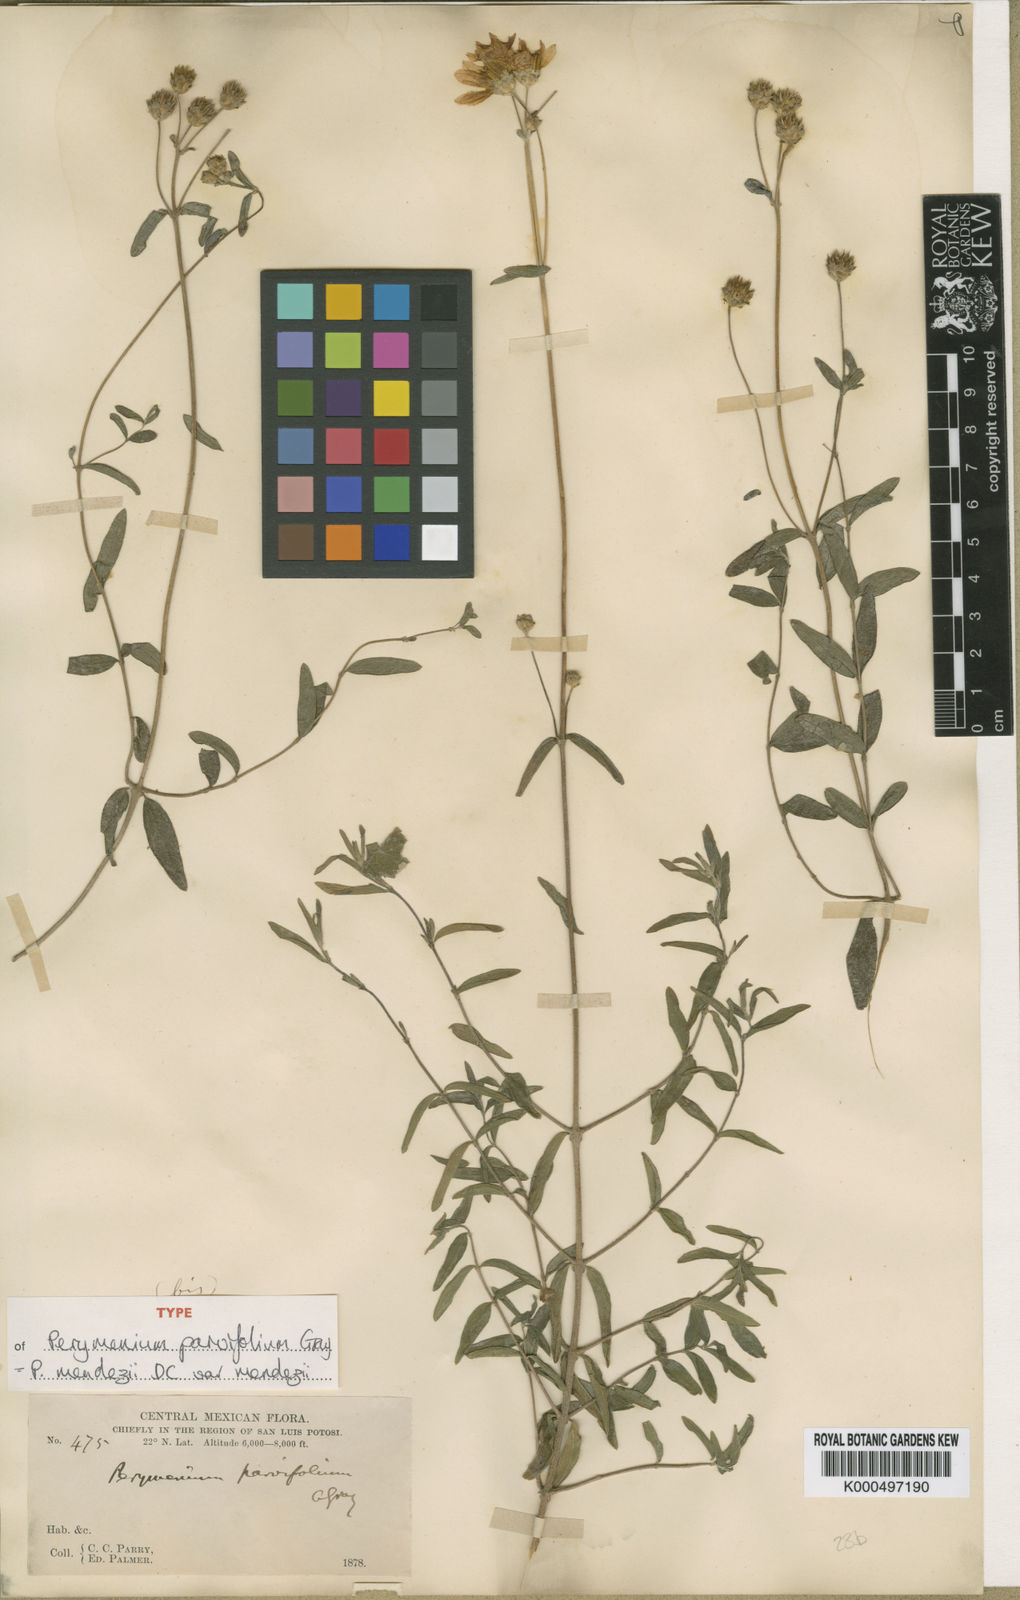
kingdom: Plantae
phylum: Tracheophyta
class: Magnoliopsida
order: Asterales
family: Asteraceae
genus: Perymenium
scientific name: Perymenium mendezii
